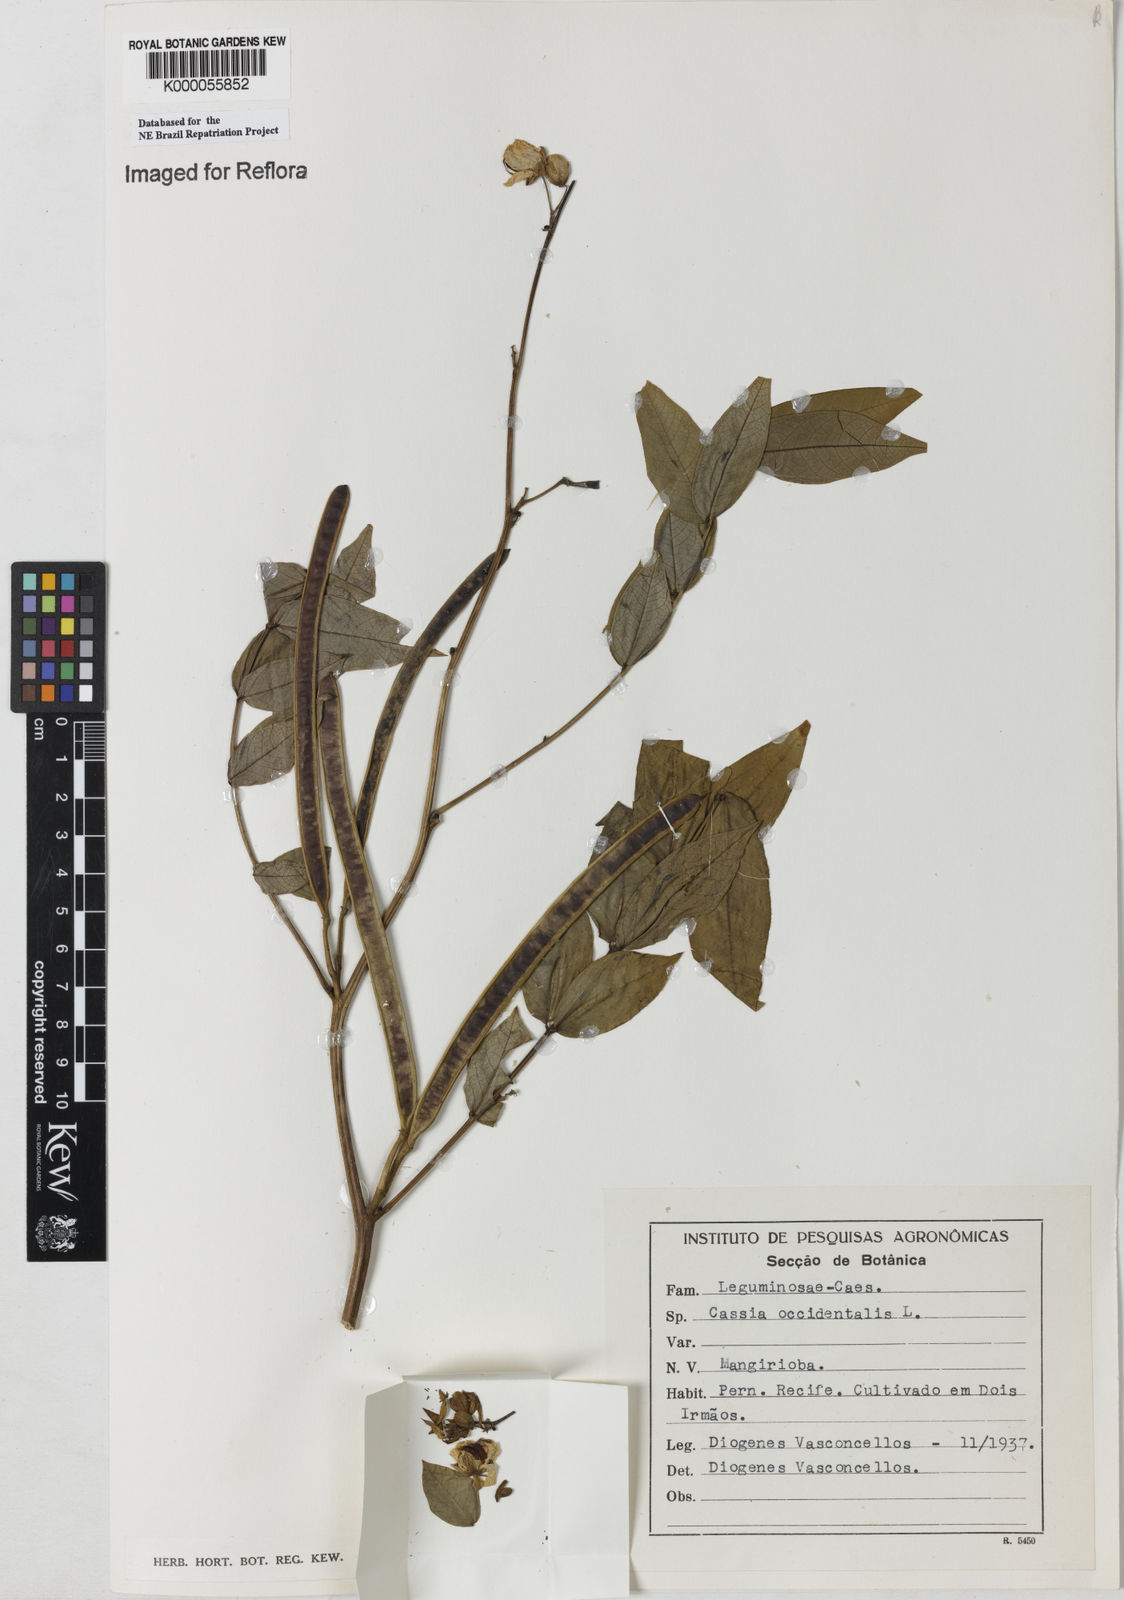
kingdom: Plantae
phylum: Tracheophyta
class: Magnoliopsida
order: Fabales
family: Fabaceae
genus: Senna
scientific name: Senna occidentalis
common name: Septicweed
